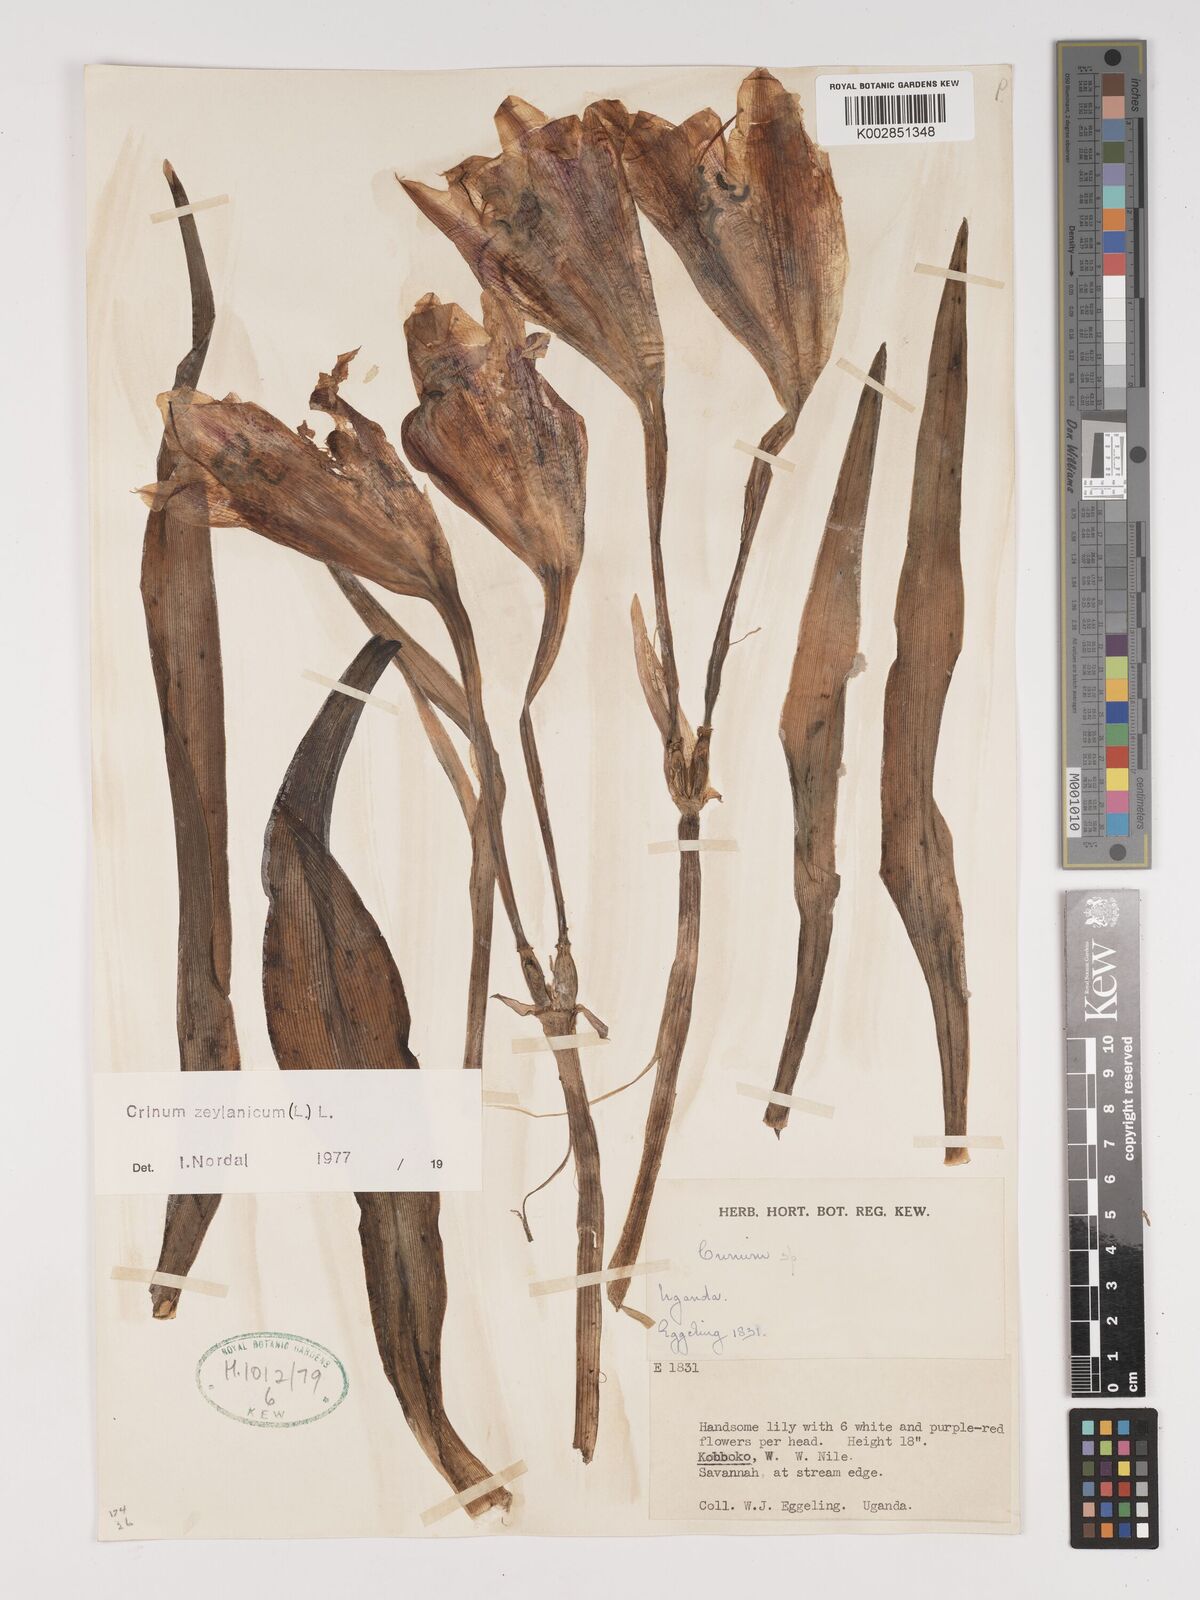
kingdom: Plantae
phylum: Tracheophyta
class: Liliopsida
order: Asparagales
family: Amaryllidaceae
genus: Crinum
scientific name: Crinum zeylanicum
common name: Ceylon swamplily
